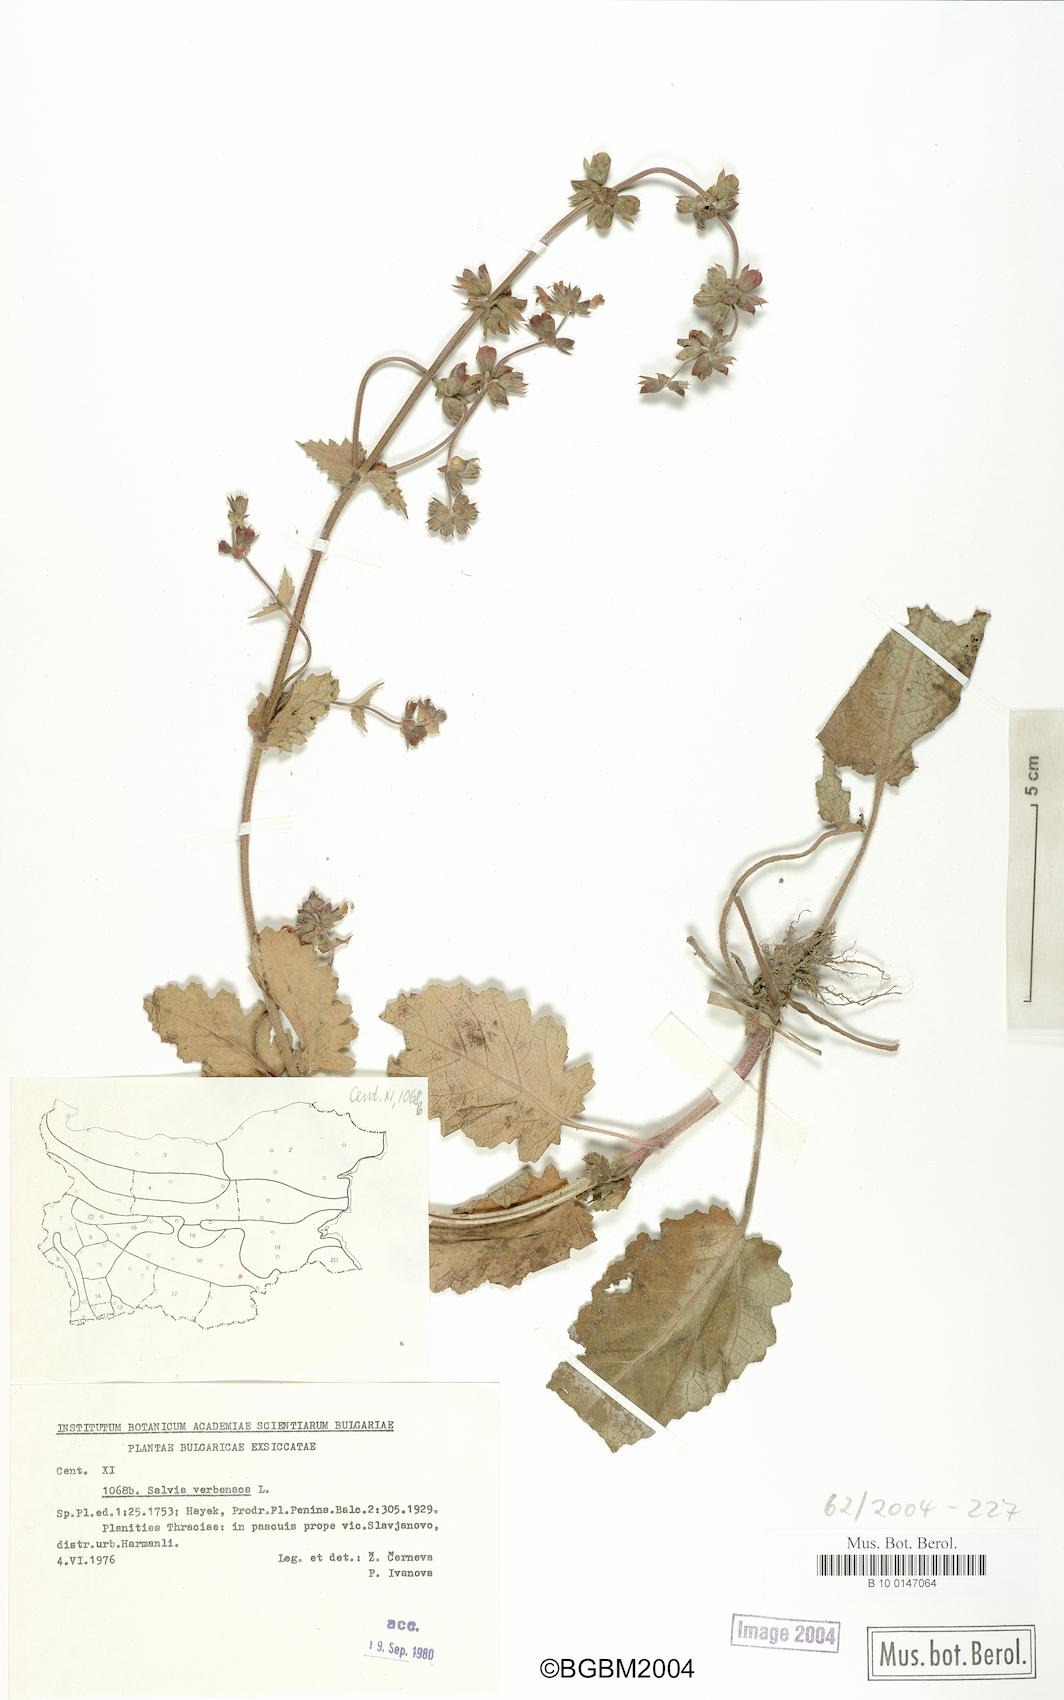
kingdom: Plantae
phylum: Tracheophyta
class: Magnoliopsida
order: Lamiales
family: Lamiaceae
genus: Salvia
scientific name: Salvia verbenaca
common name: Wild clary
